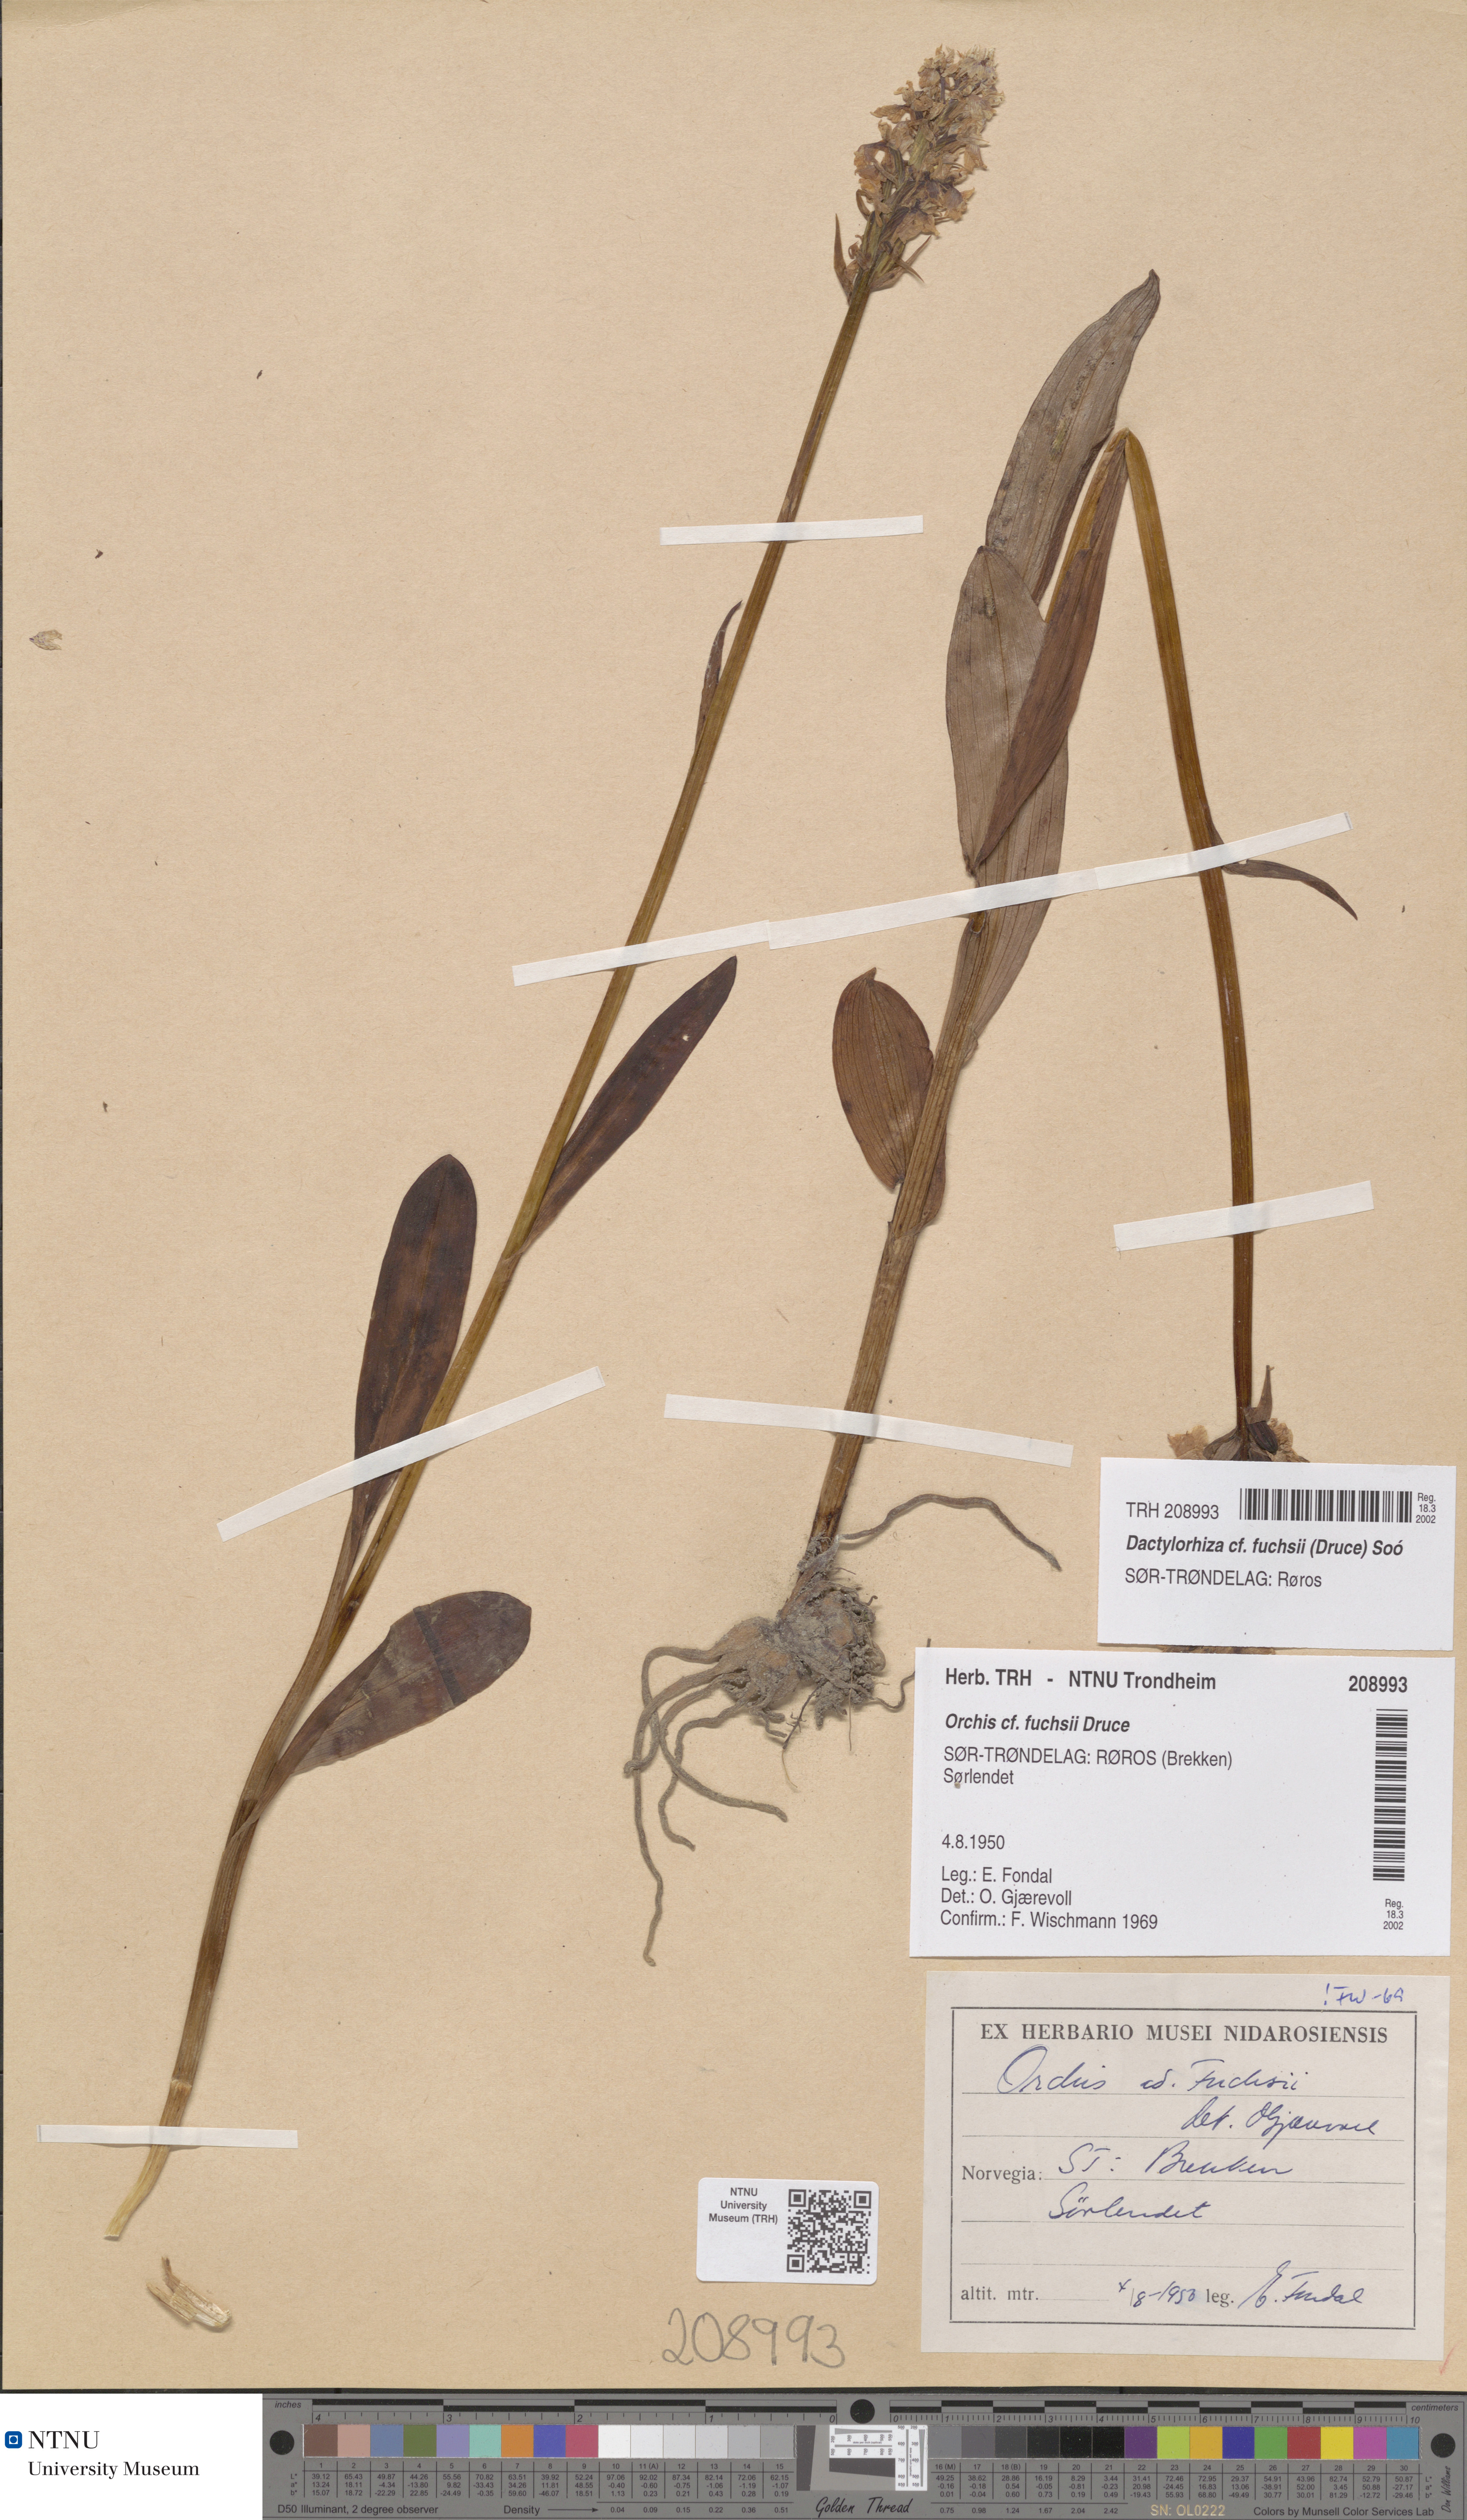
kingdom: Plantae
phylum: Tracheophyta
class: Liliopsida
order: Asparagales
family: Orchidaceae
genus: Dactylorhiza
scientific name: Dactylorhiza maculata
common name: Heath spotted-orchid
